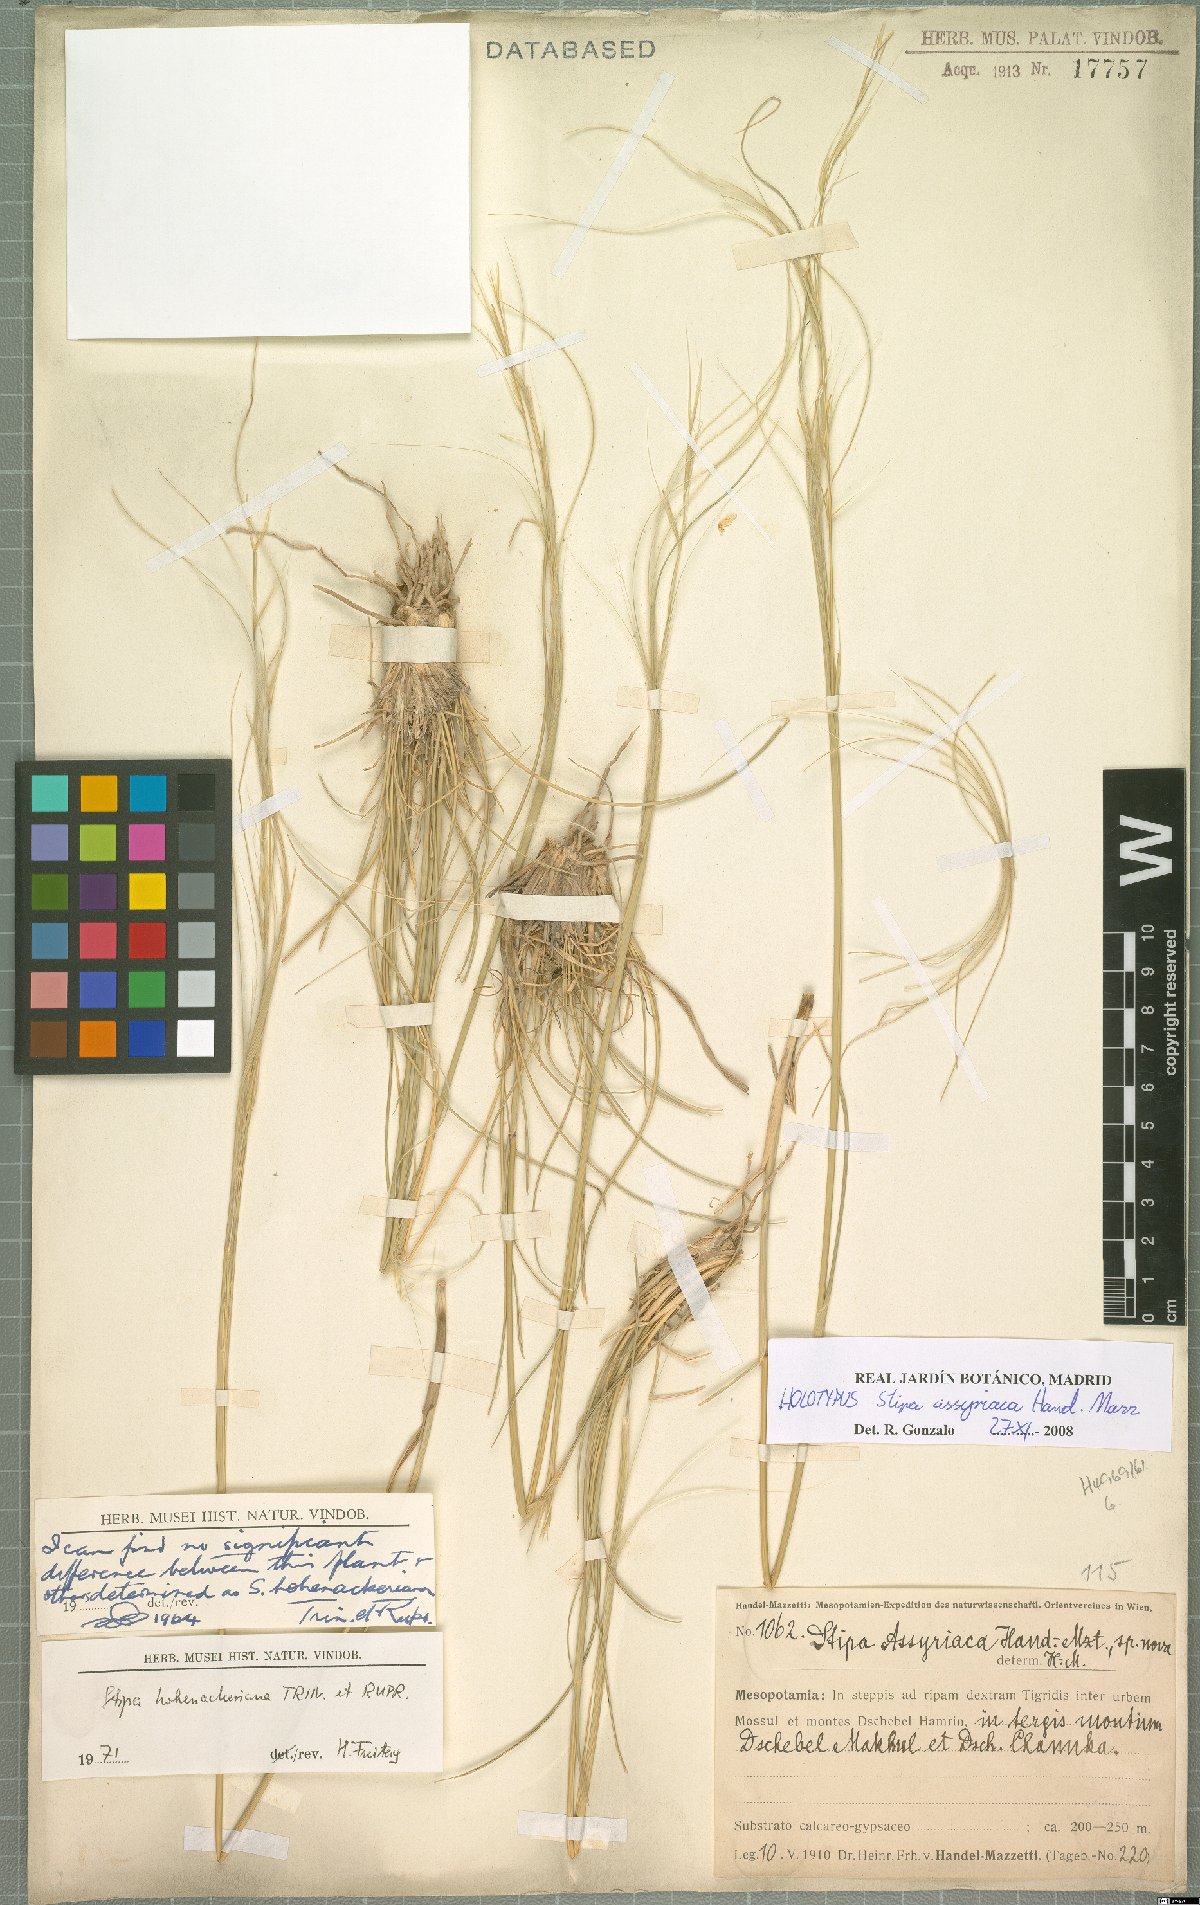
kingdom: Plantae
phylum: Tracheophyta
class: Liliopsida
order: Poales
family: Poaceae
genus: Stipa
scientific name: Stipa hohenackeriana
